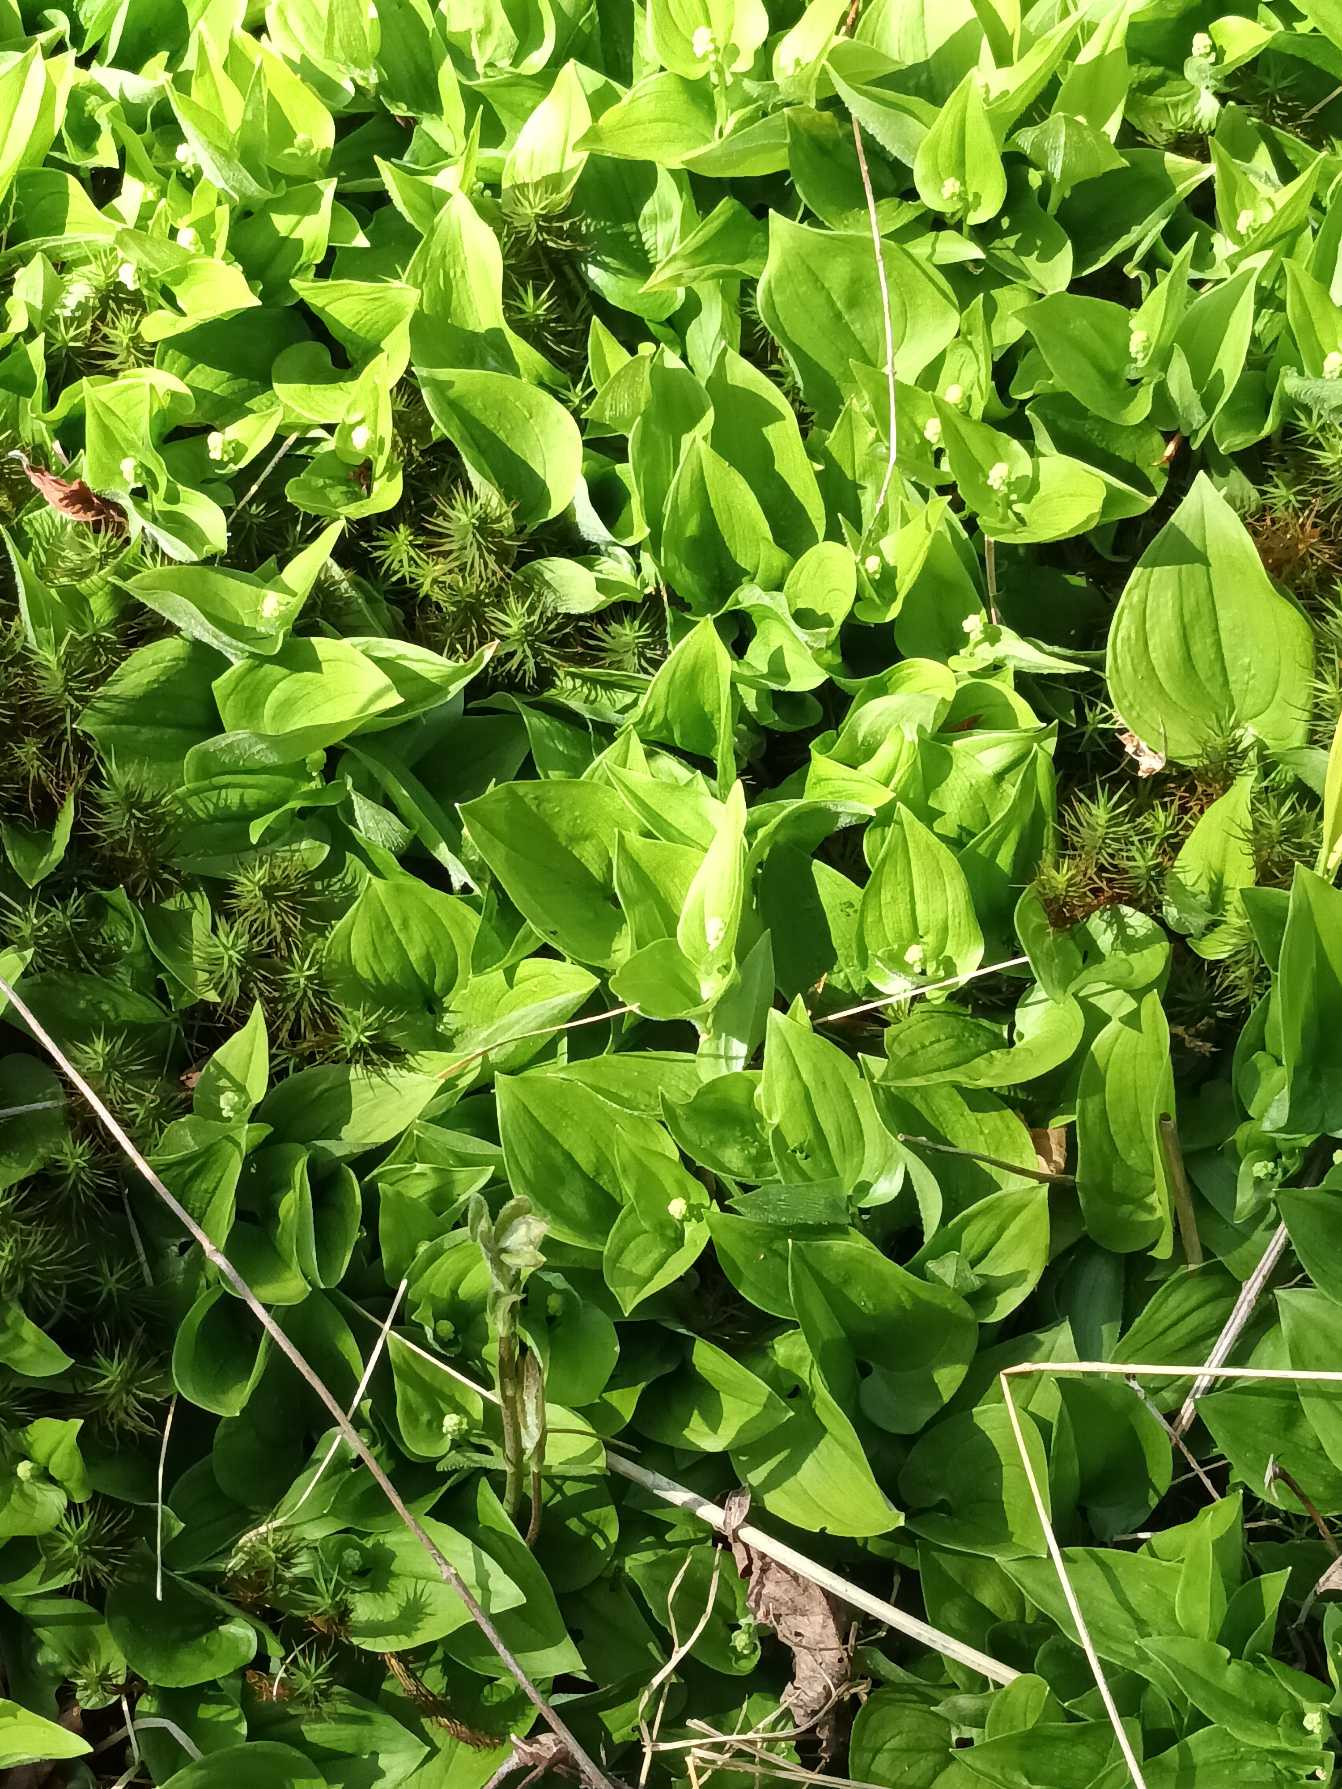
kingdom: Plantae
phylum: Tracheophyta
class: Liliopsida
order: Asparagales
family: Asparagaceae
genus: Maianthemum
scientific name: Maianthemum bifolium
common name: Majblomst
